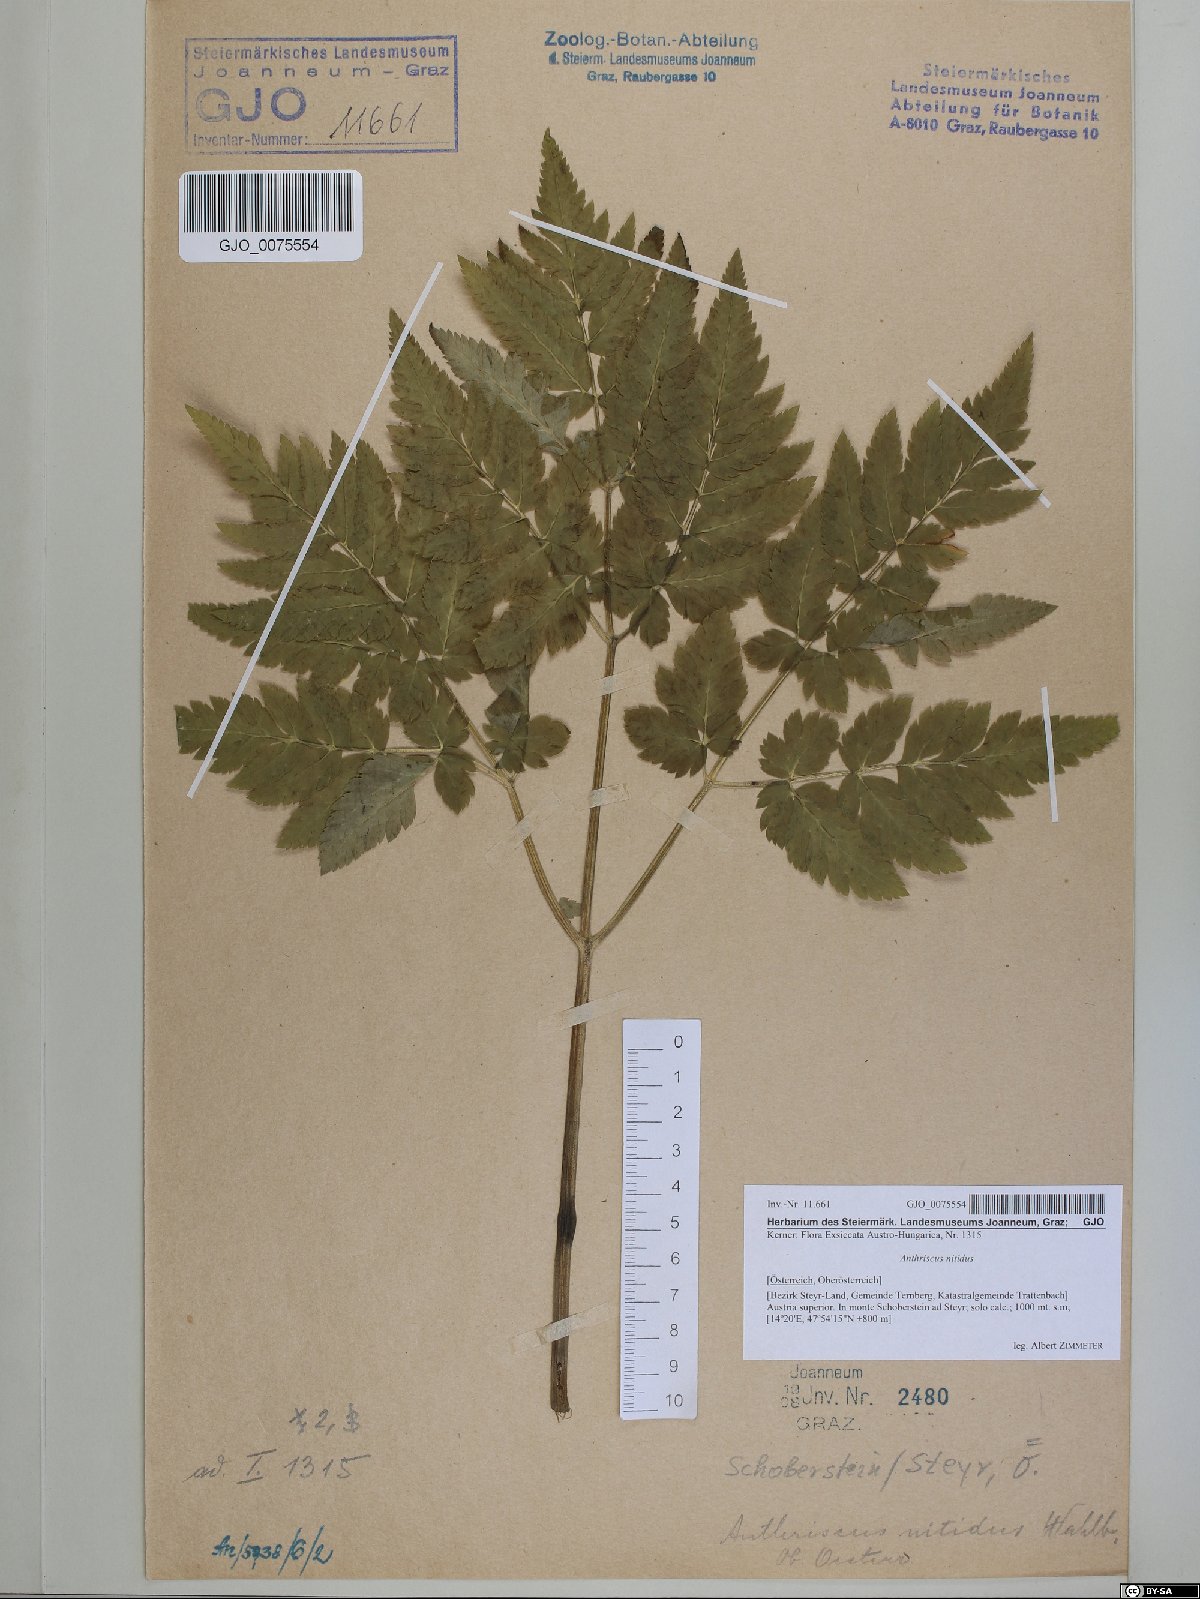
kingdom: Plantae
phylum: Tracheophyta
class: Magnoliopsida
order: Apiales
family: Apiaceae
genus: Anthriscus
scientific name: Anthriscus nitida
